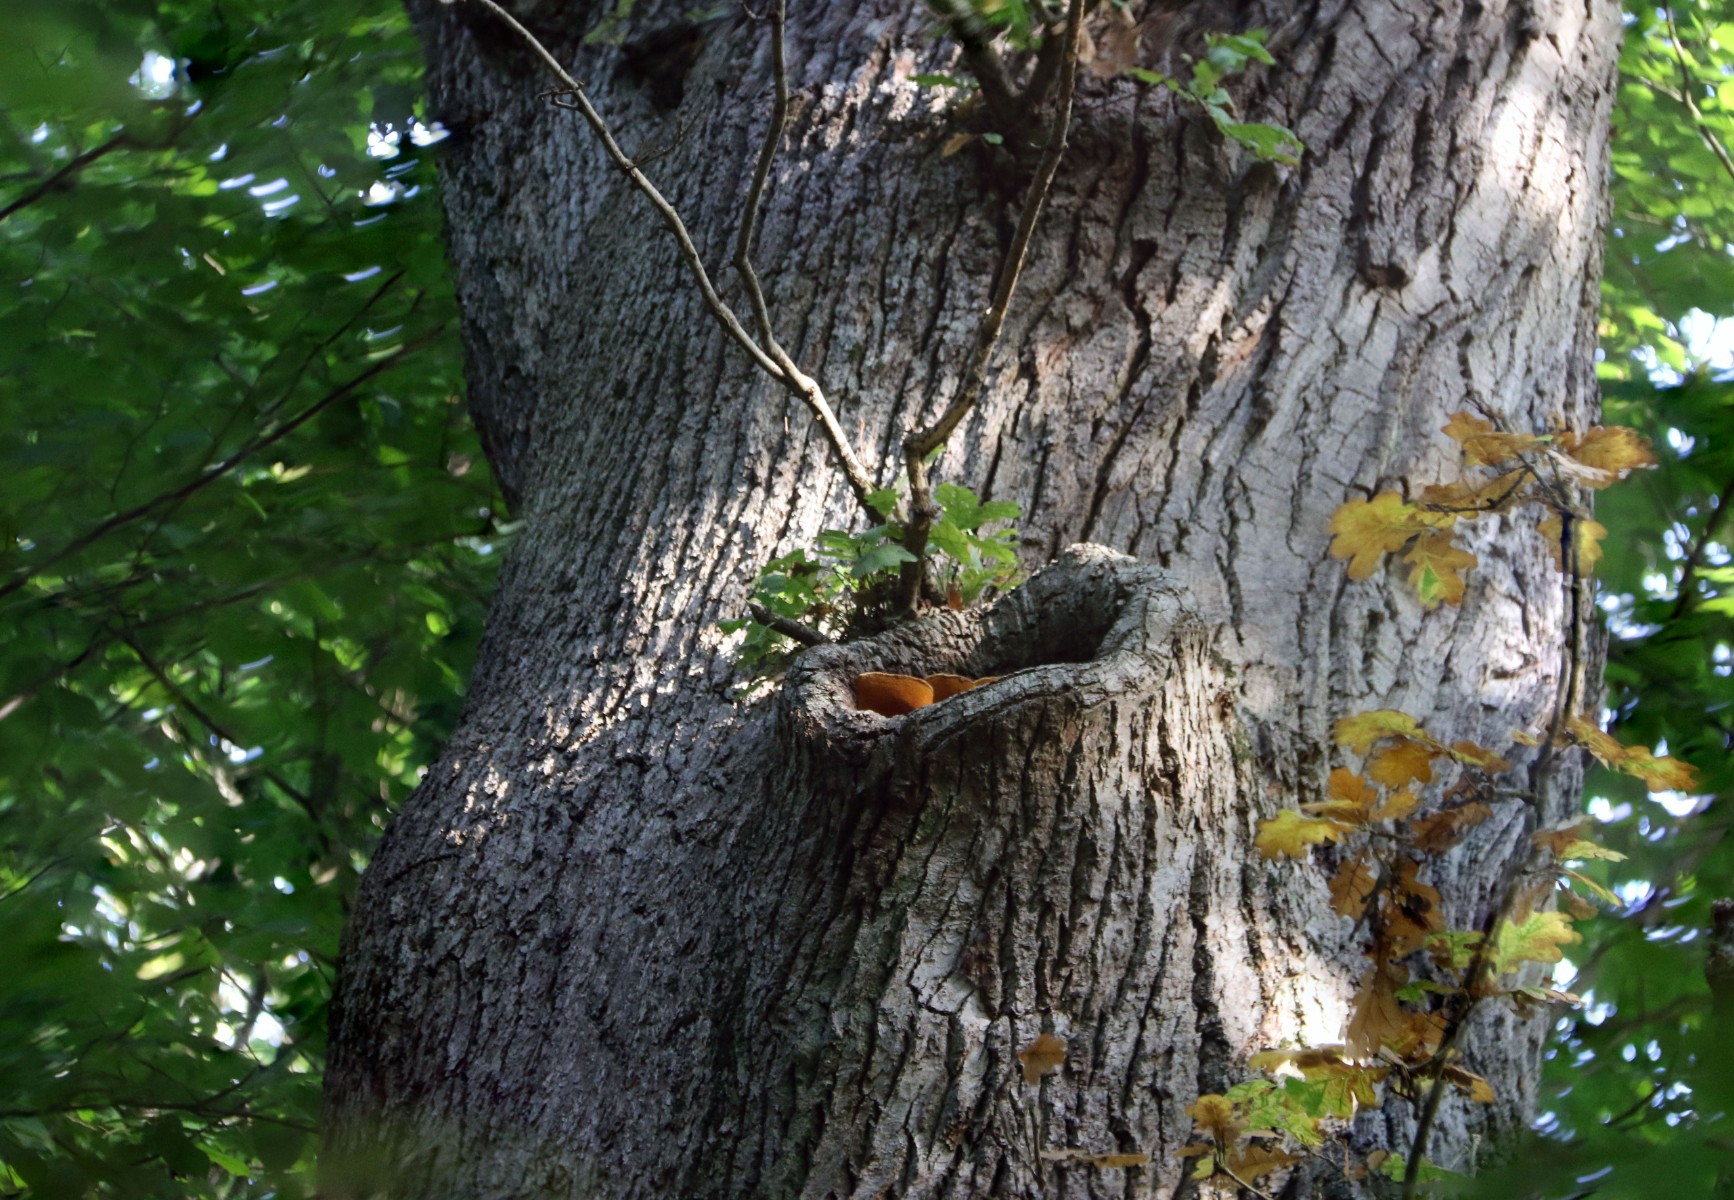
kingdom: Fungi
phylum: Basidiomycota
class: Agaricomycetes
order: Polyporales
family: Phanerochaetaceae
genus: Hapalopilus
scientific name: Hapalopilus croceus
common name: safrangul pragtporesvamp
